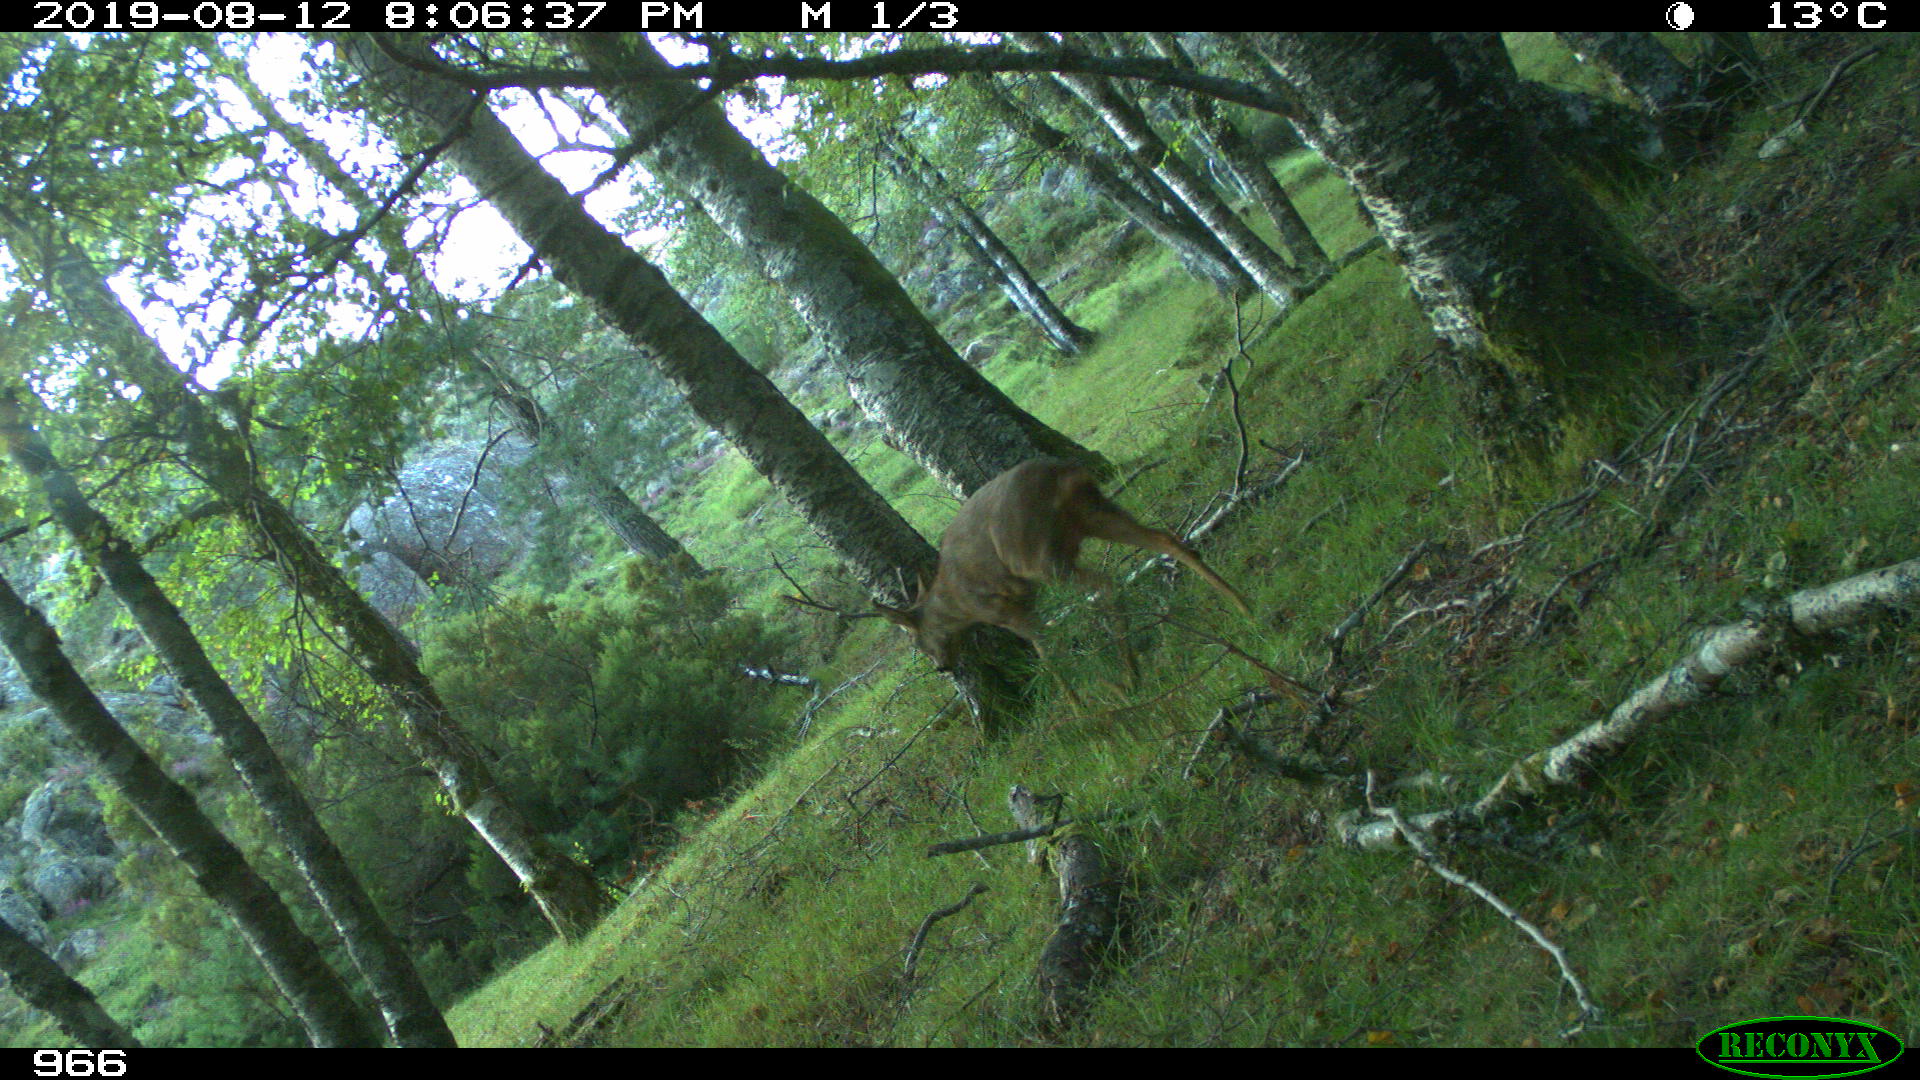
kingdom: Animalia
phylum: Chordata
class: Mammalia
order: Artiodactyla
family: Cervidae
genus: Capreolus
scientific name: Capreolus capreolus
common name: Western roe deer
